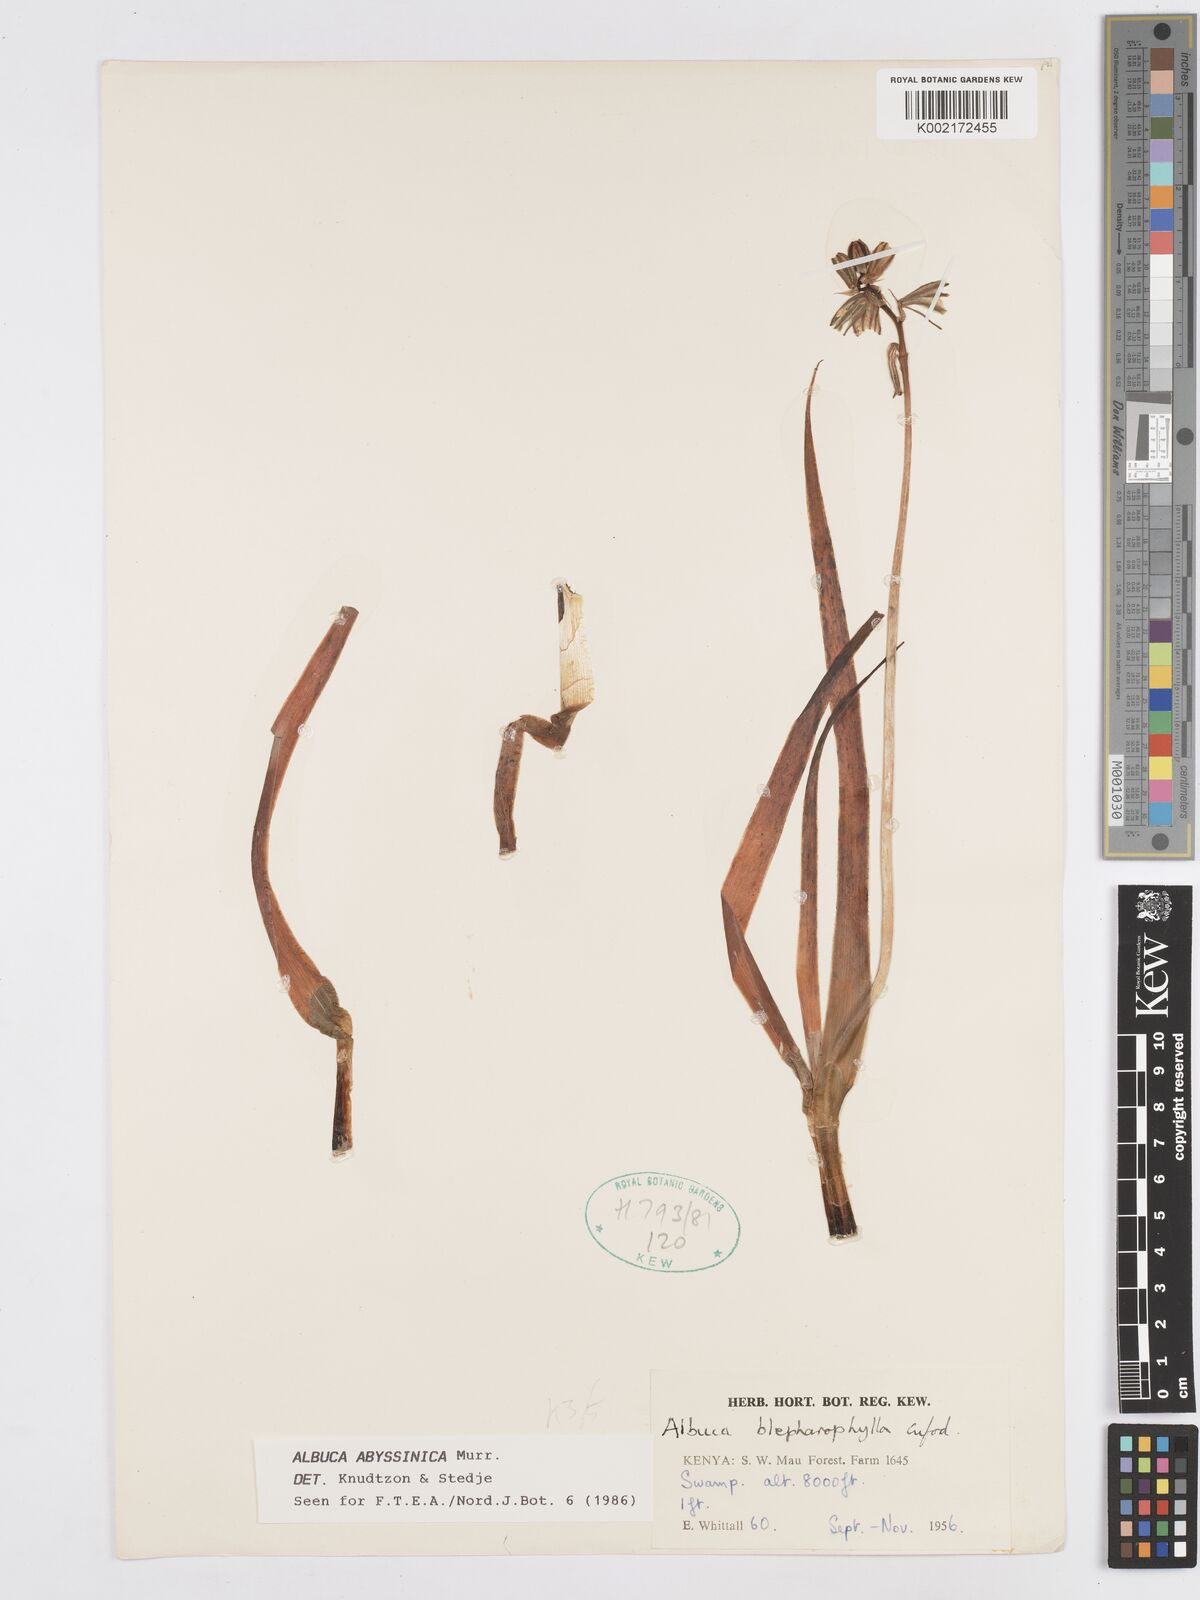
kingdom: Plantae
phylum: Tracheophyta
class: Liliopsida
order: Asparagales
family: Asparagaceae
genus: Albuca
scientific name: Albuca abyssinica
